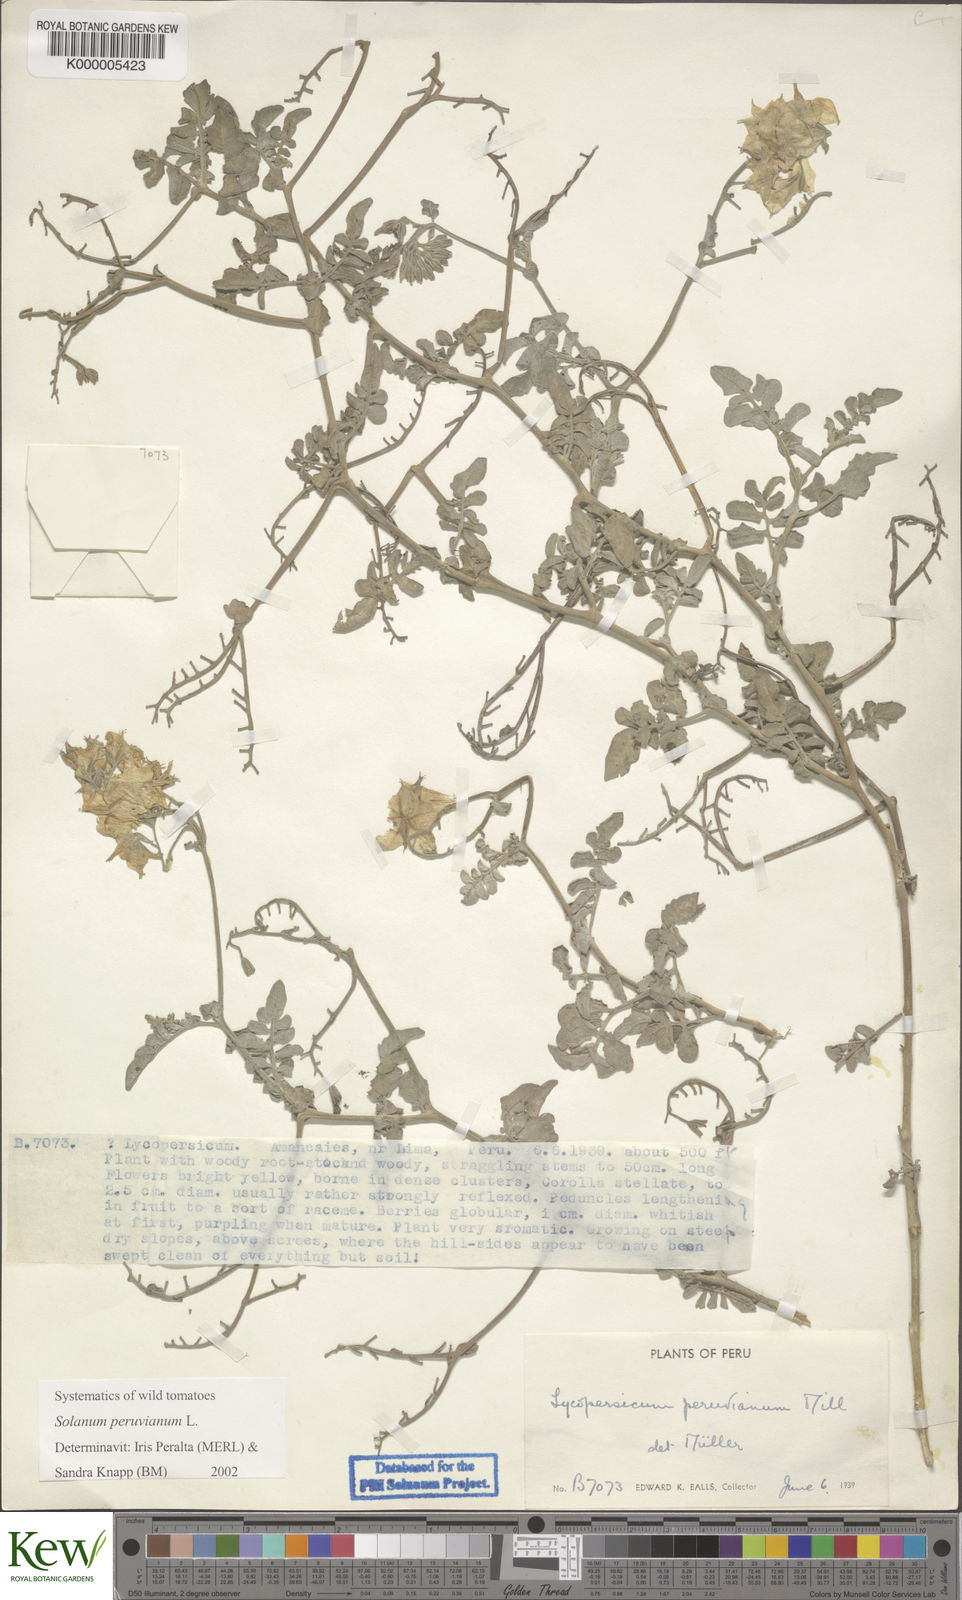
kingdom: Plantae
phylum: Tracheophyta
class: Magnoliopsida
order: Solanales
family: Solanaceae
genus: Solanum
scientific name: Solanum peruvianum
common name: Peruvian nightshade
